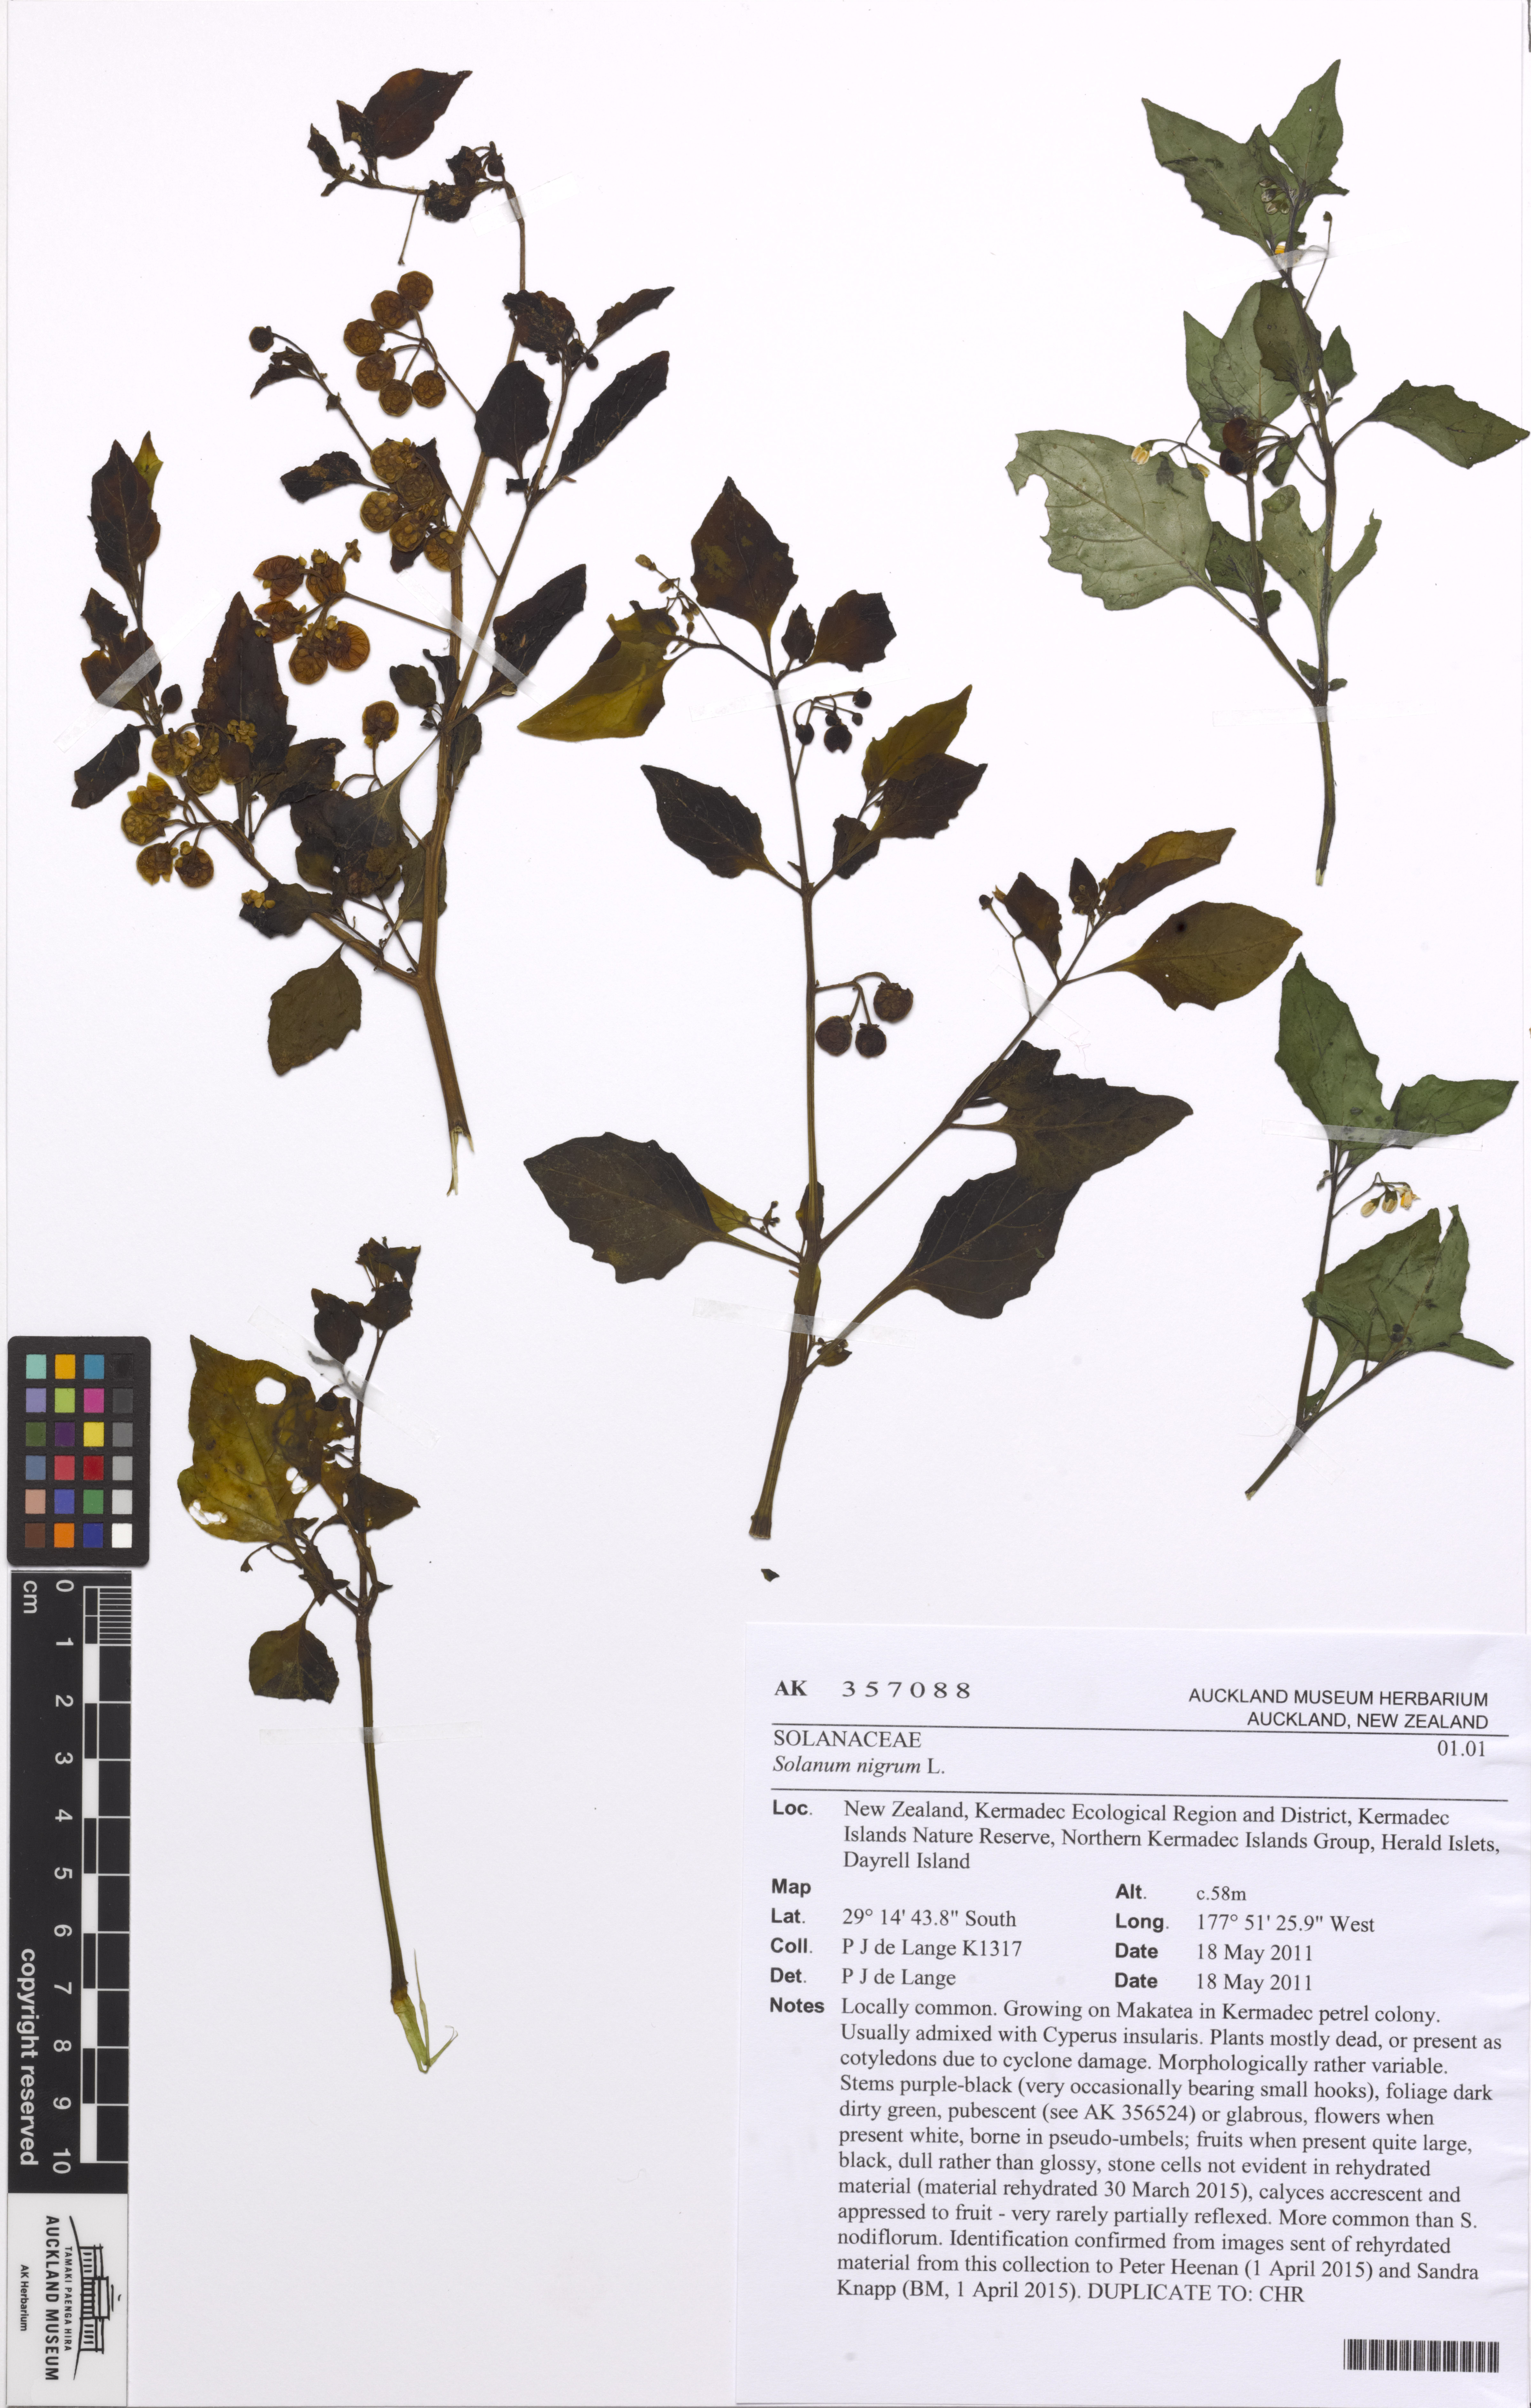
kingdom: Plantae
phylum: Tracheophyta
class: Magnoliopsida
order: Solanales
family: Solanaceae
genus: Solanum
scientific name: Solanum nigrum
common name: Black nightshade
